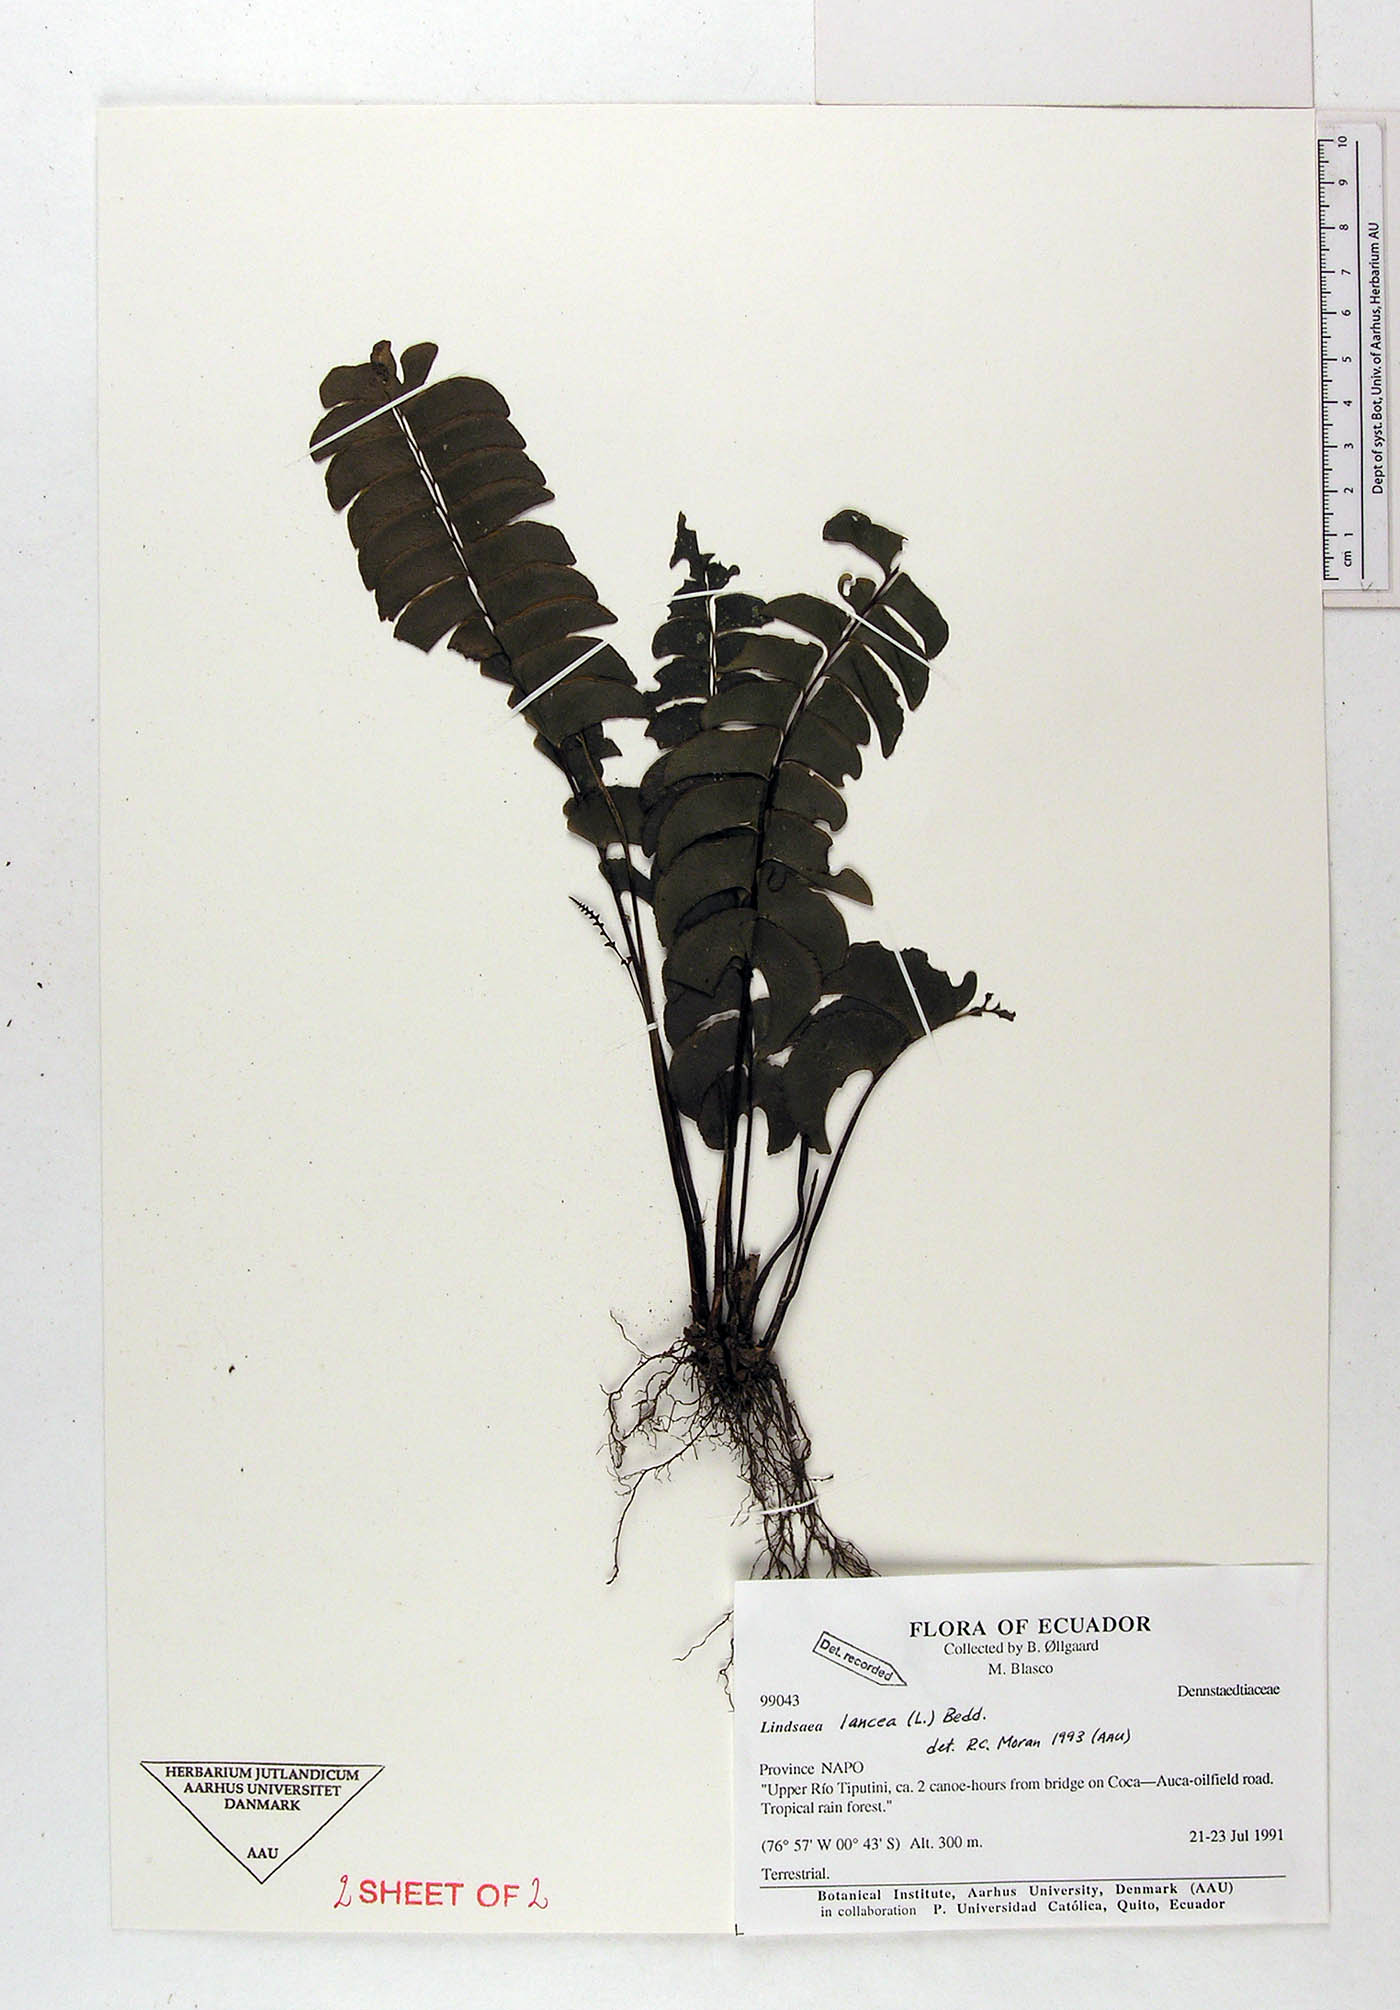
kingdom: Plantae
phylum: Tracheophyta
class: Polypodiopsida
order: Polypodiales
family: Dennstaedtiaceae
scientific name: Dennstaedtiaceae
